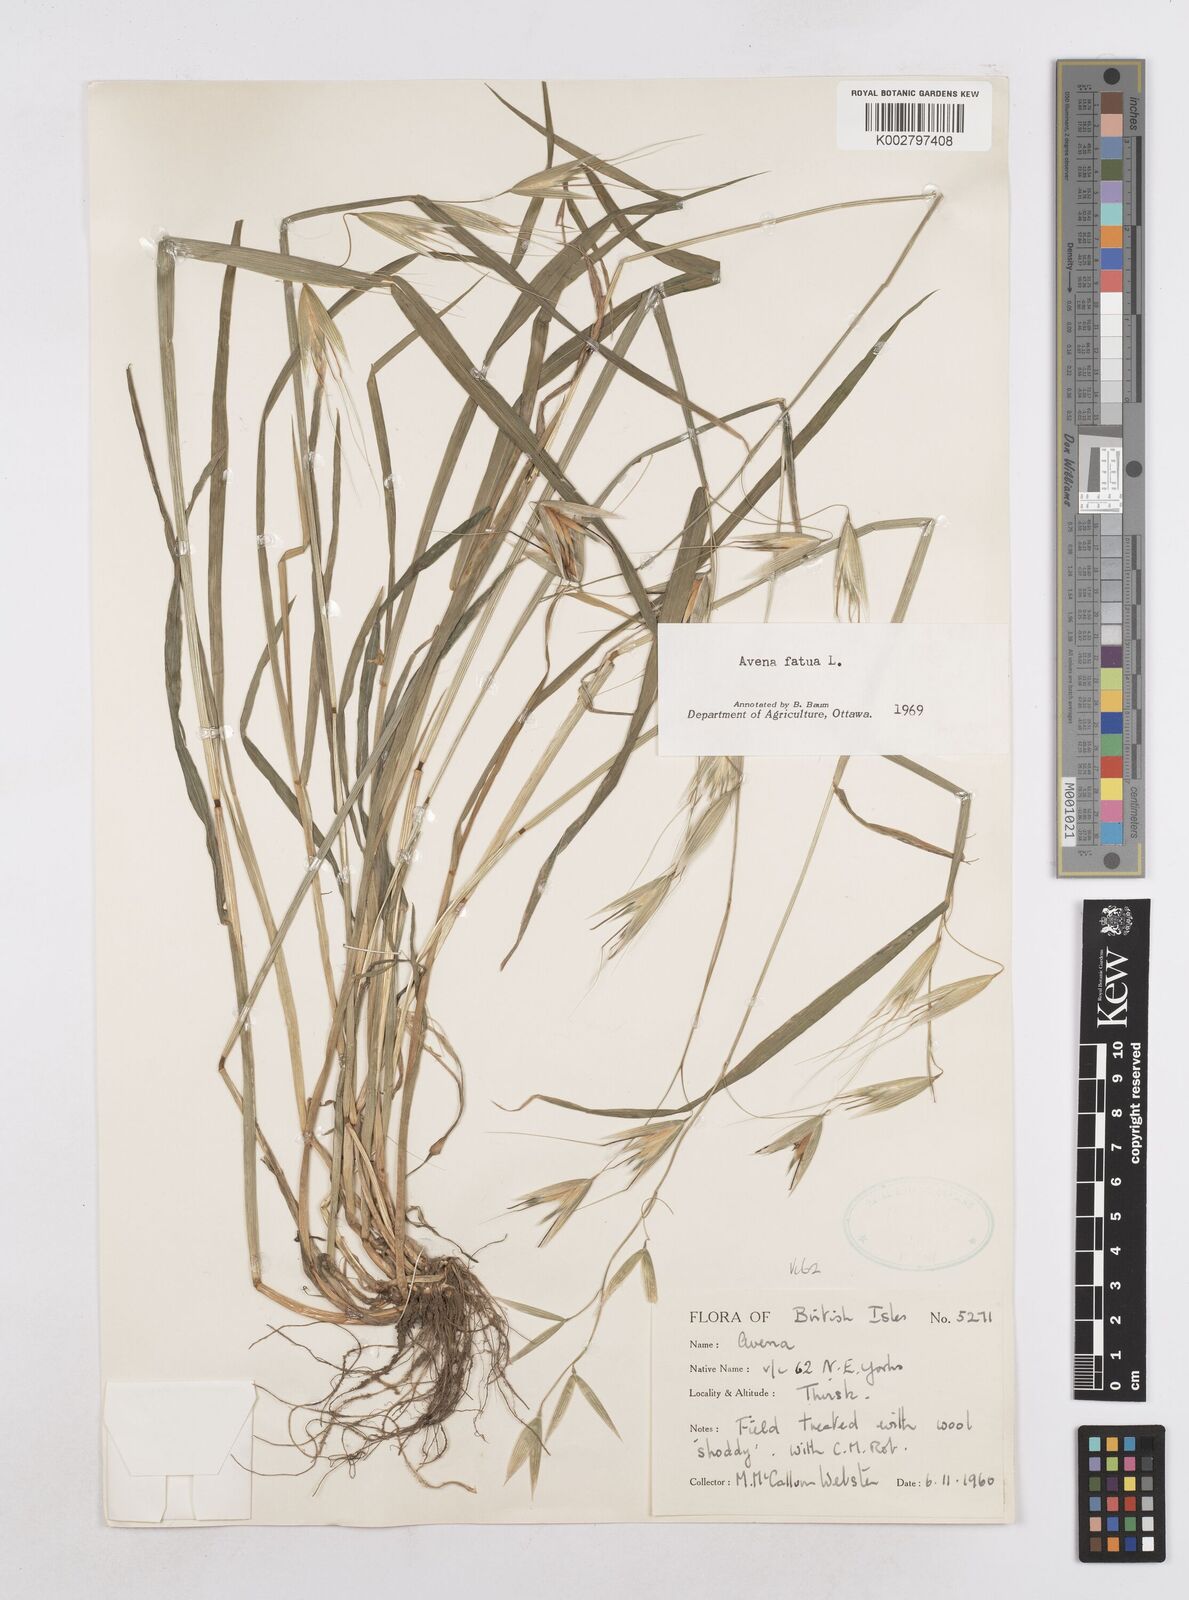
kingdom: Plantae
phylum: Tracheophyta
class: Liliopsida
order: Poales
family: Poaceae
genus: Avena
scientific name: Avena fatua
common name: Wild oat
